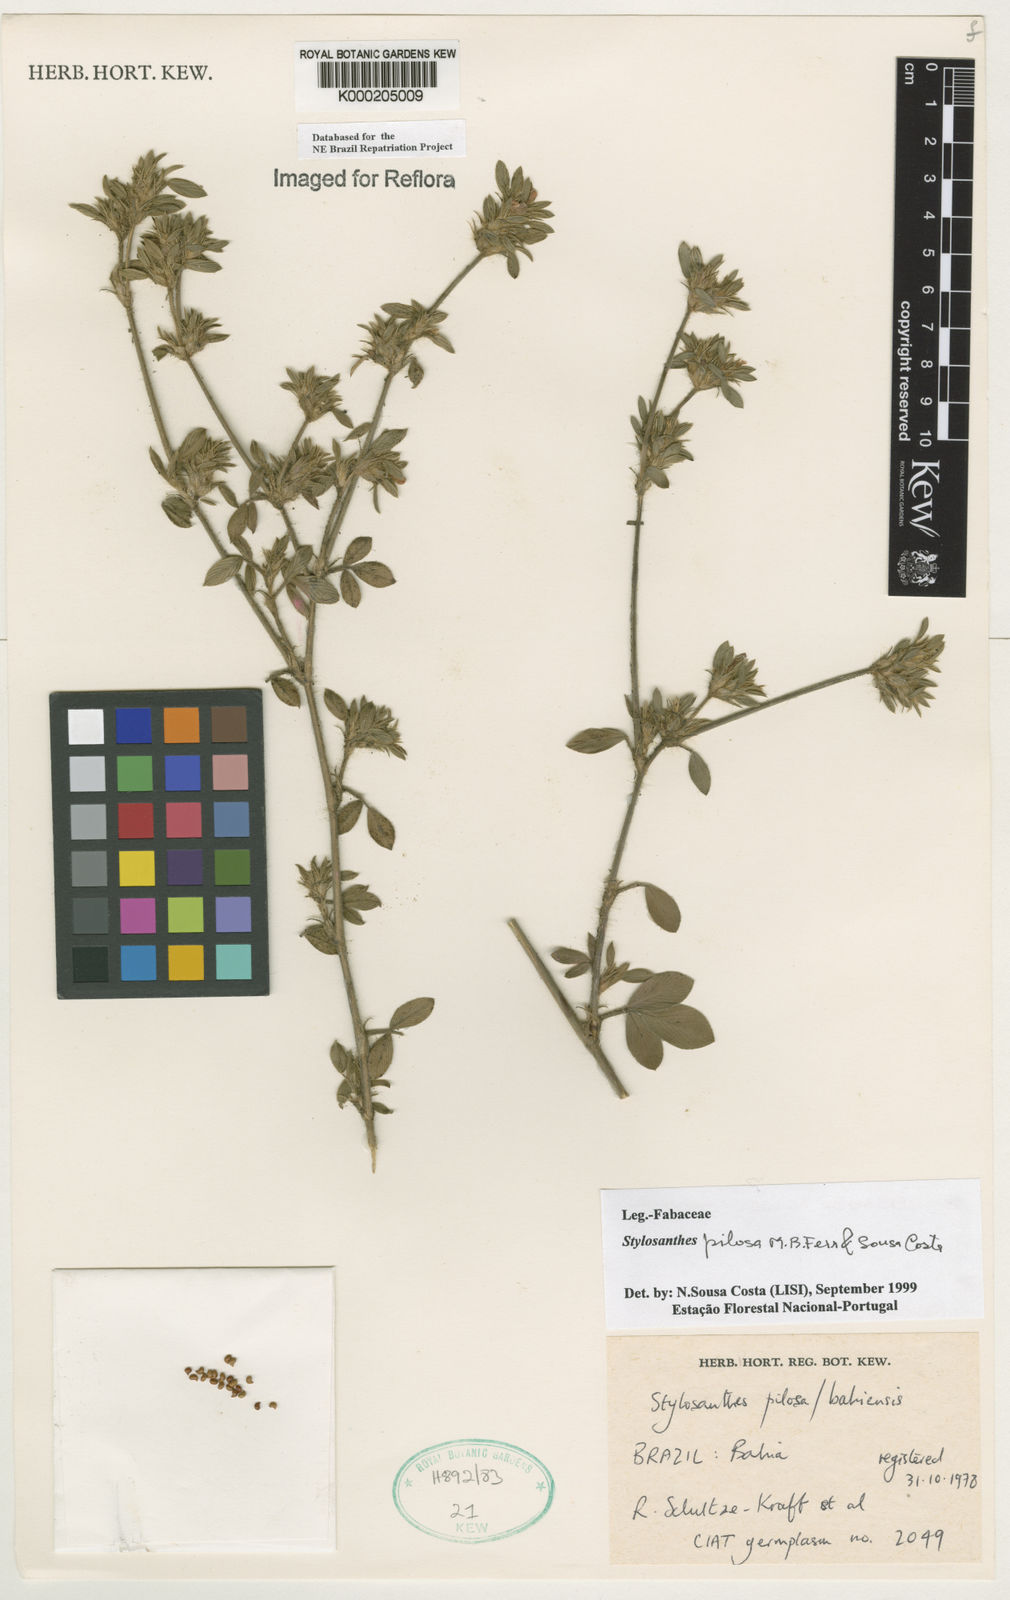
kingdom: Plantae
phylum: Tracheophyta
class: Magnoliopsida
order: Fabales
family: Fabaceae
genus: Stylosanthes
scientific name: Stylosanthes viscosa
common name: Viscid pencil-flower
